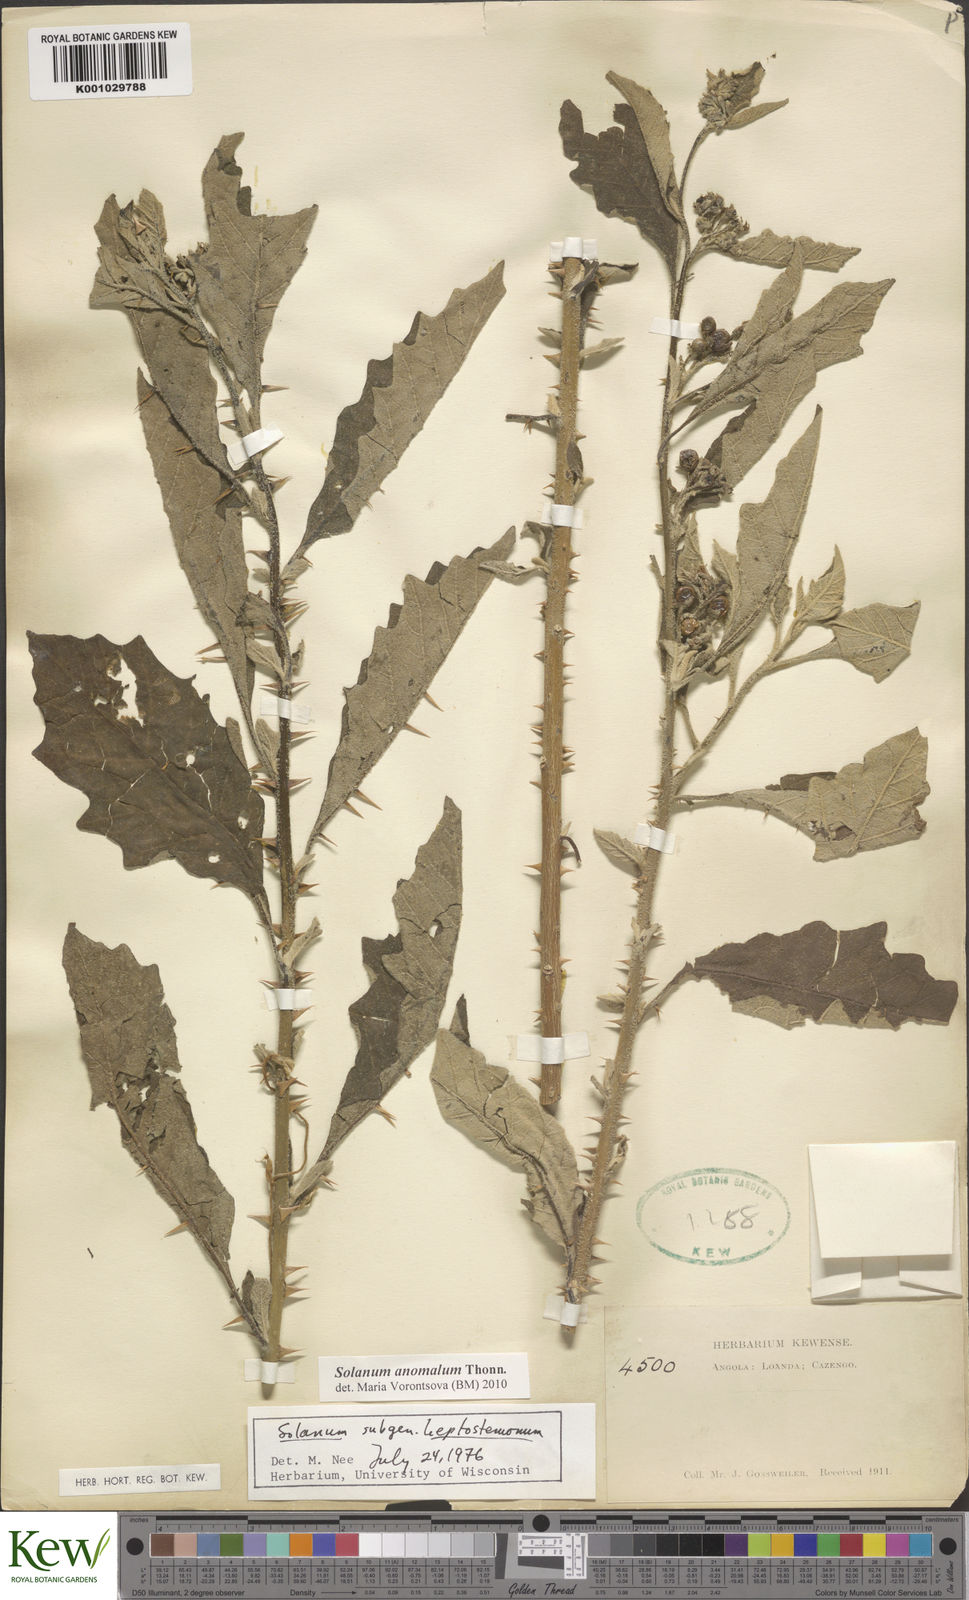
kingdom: Plantae
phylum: Tracheophyta
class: Magnoliopsida
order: Solanales
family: Solanaceae
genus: Solanum
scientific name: Solanum anomalum
